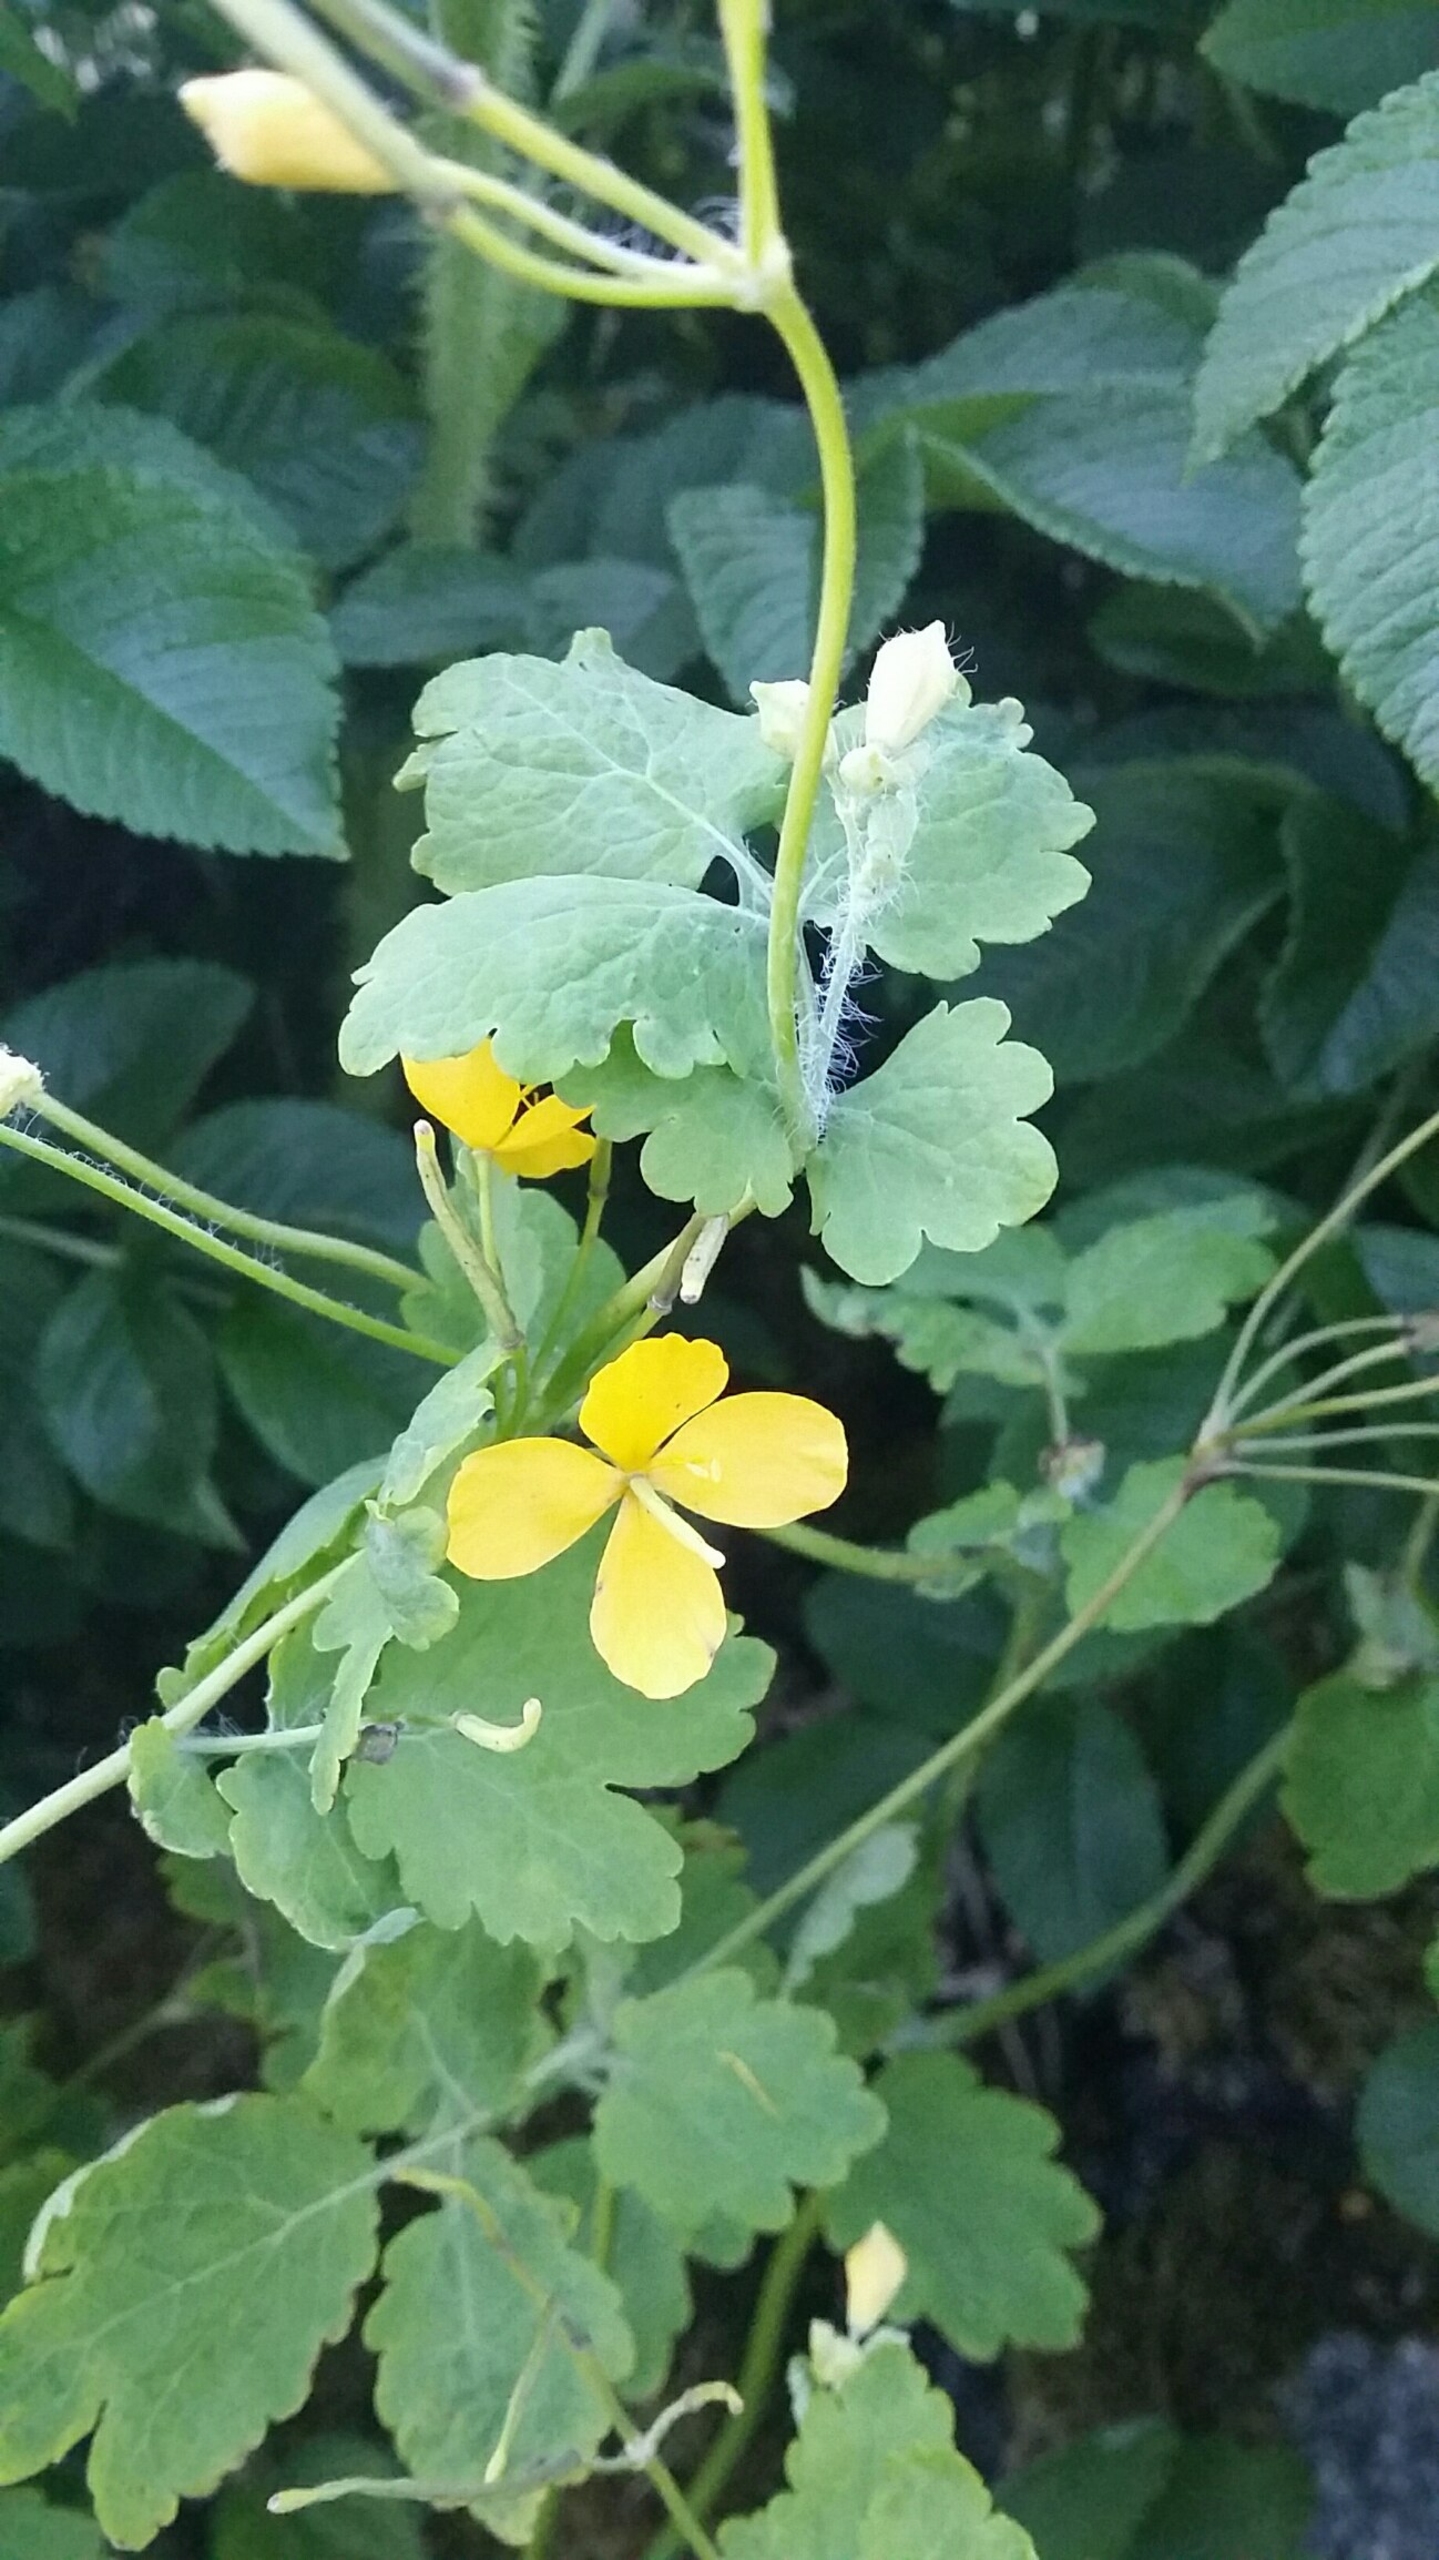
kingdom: Plantae
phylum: Tracheophyta
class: Magnoliopsida
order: Ranunculales
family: Papaveraceae
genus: Chelidonium
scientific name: Chelidonium majus
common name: Svaleurt
